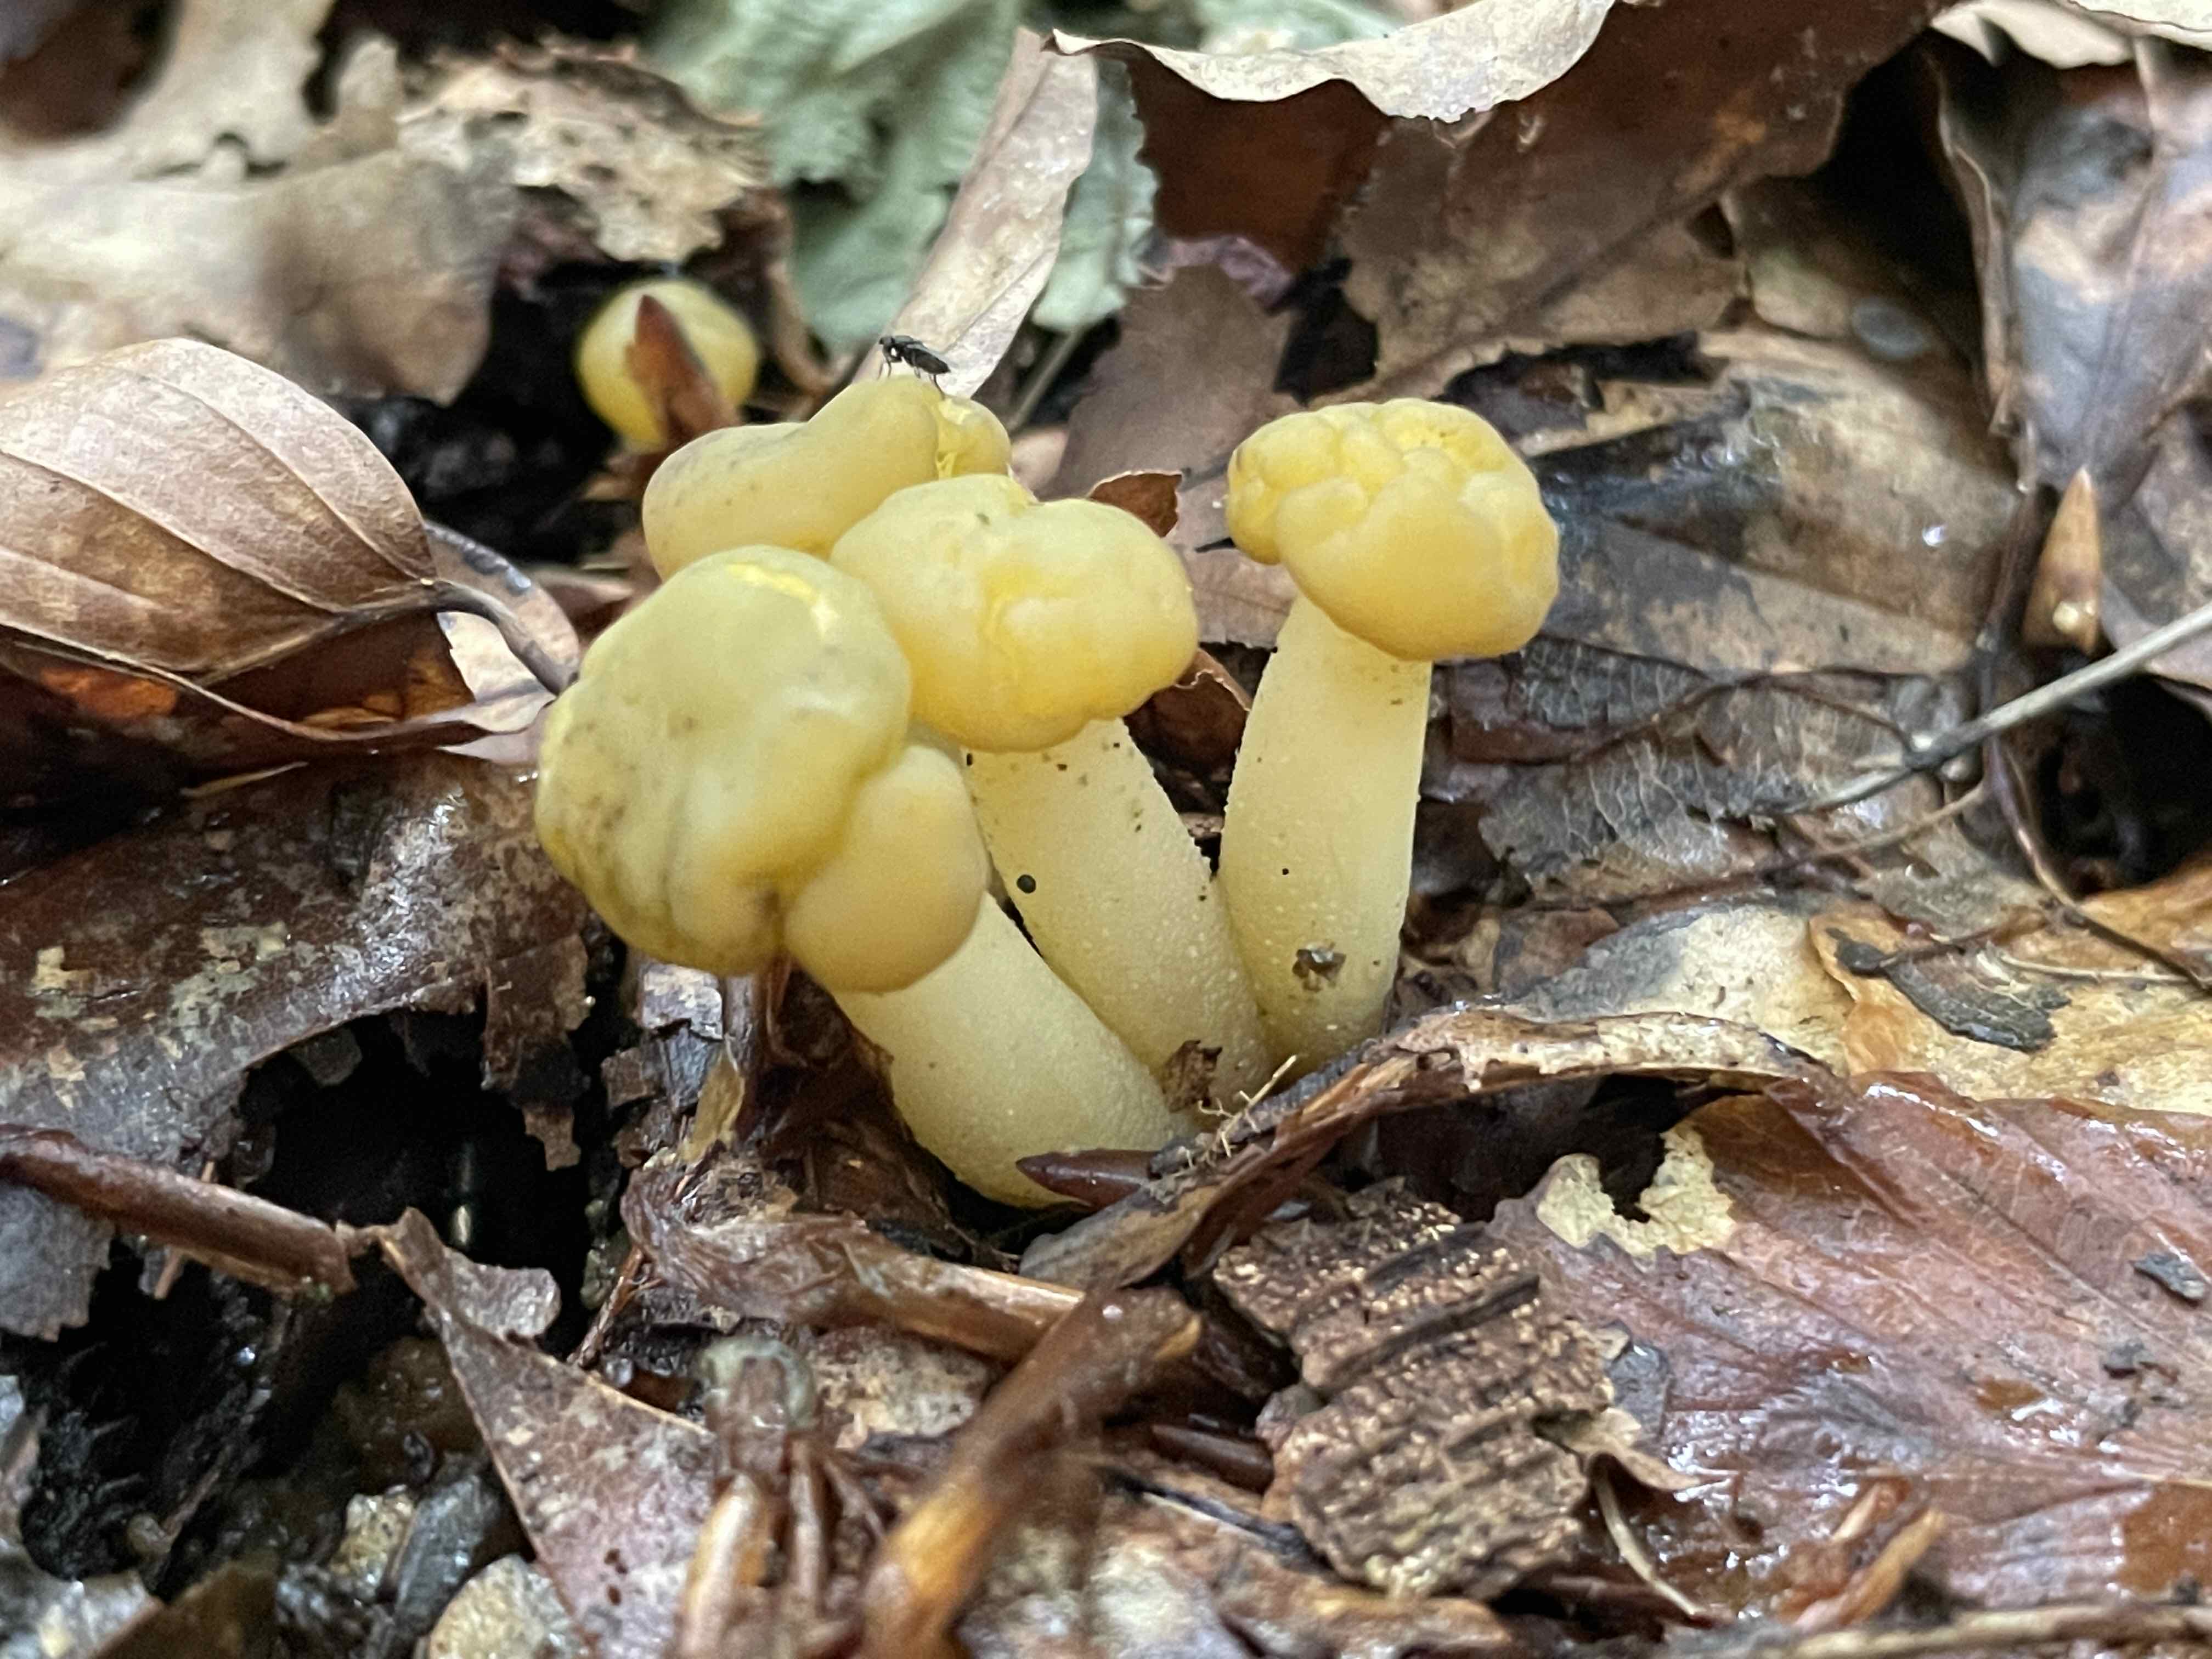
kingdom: Fungi
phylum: Ascomycota
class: Leotiomycetes
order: Leotiales
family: Leotiaceae
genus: Leotia
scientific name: Leotia lubrica
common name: ravsvamp
